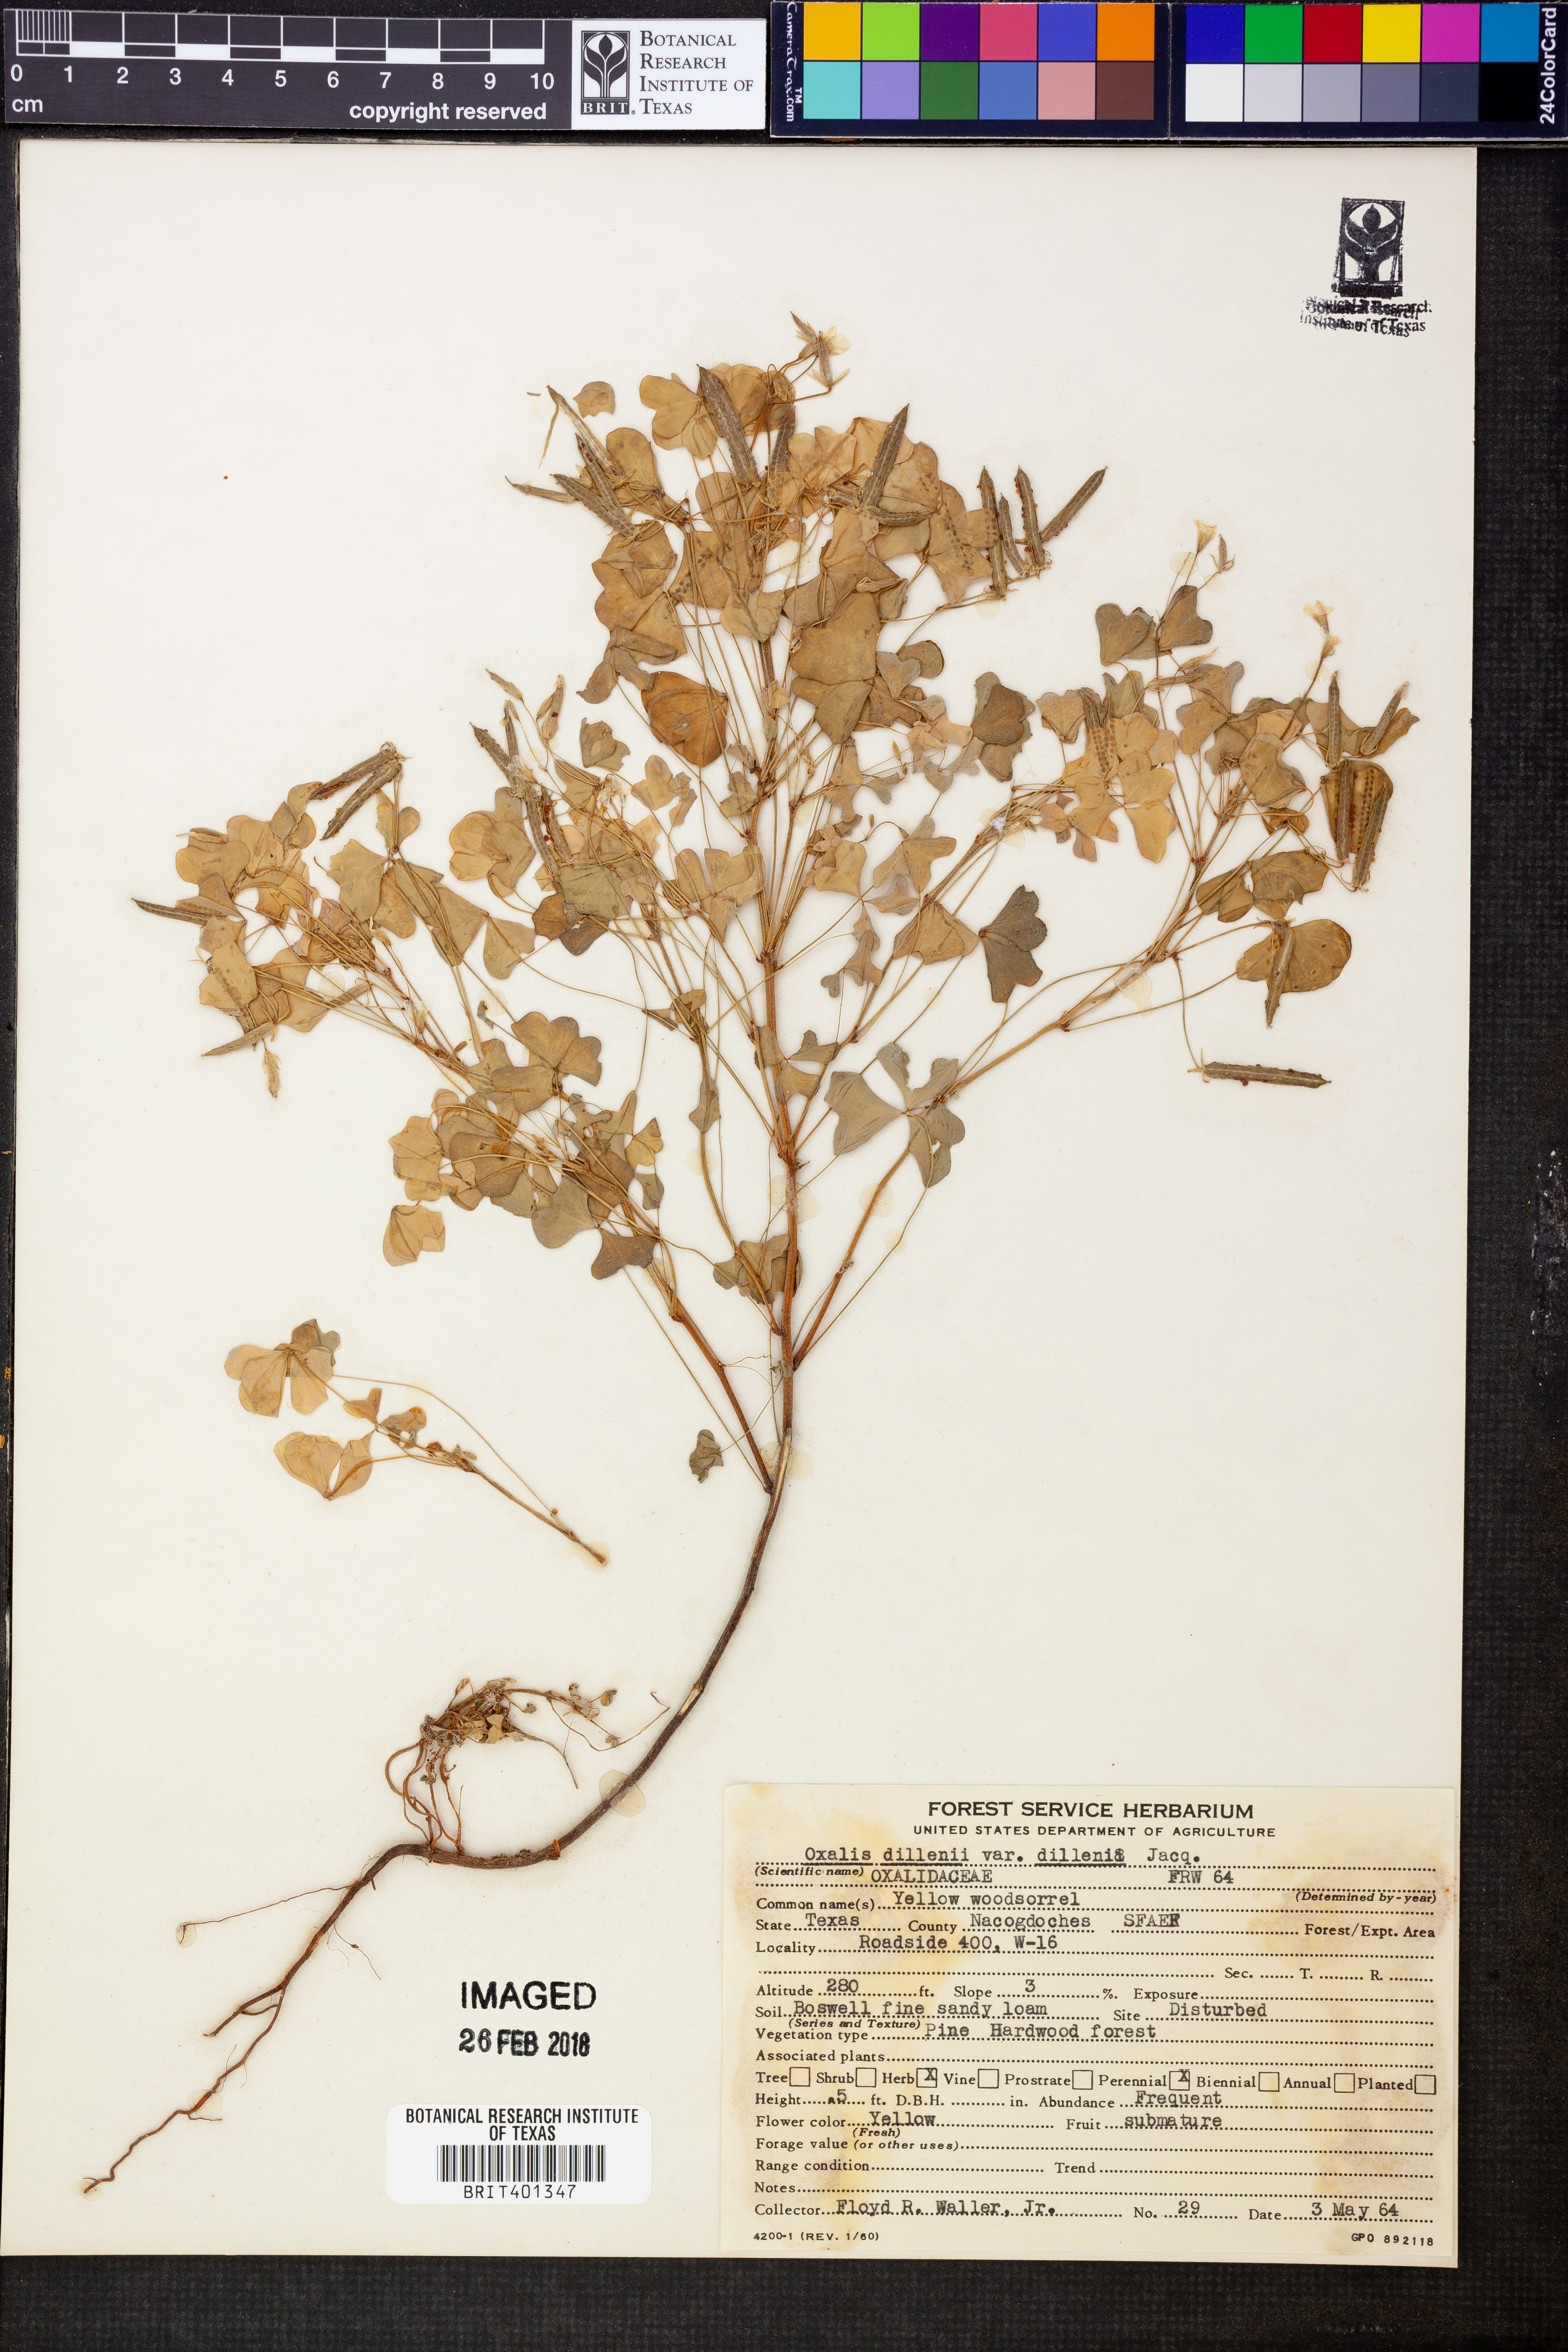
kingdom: Plantae
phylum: Tracheophyta
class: Magnoliopsida
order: Oxalidales
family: Oxalidaceae
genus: Oxalis
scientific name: Oxalis dillenii
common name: Sussex yellow-sorrel
